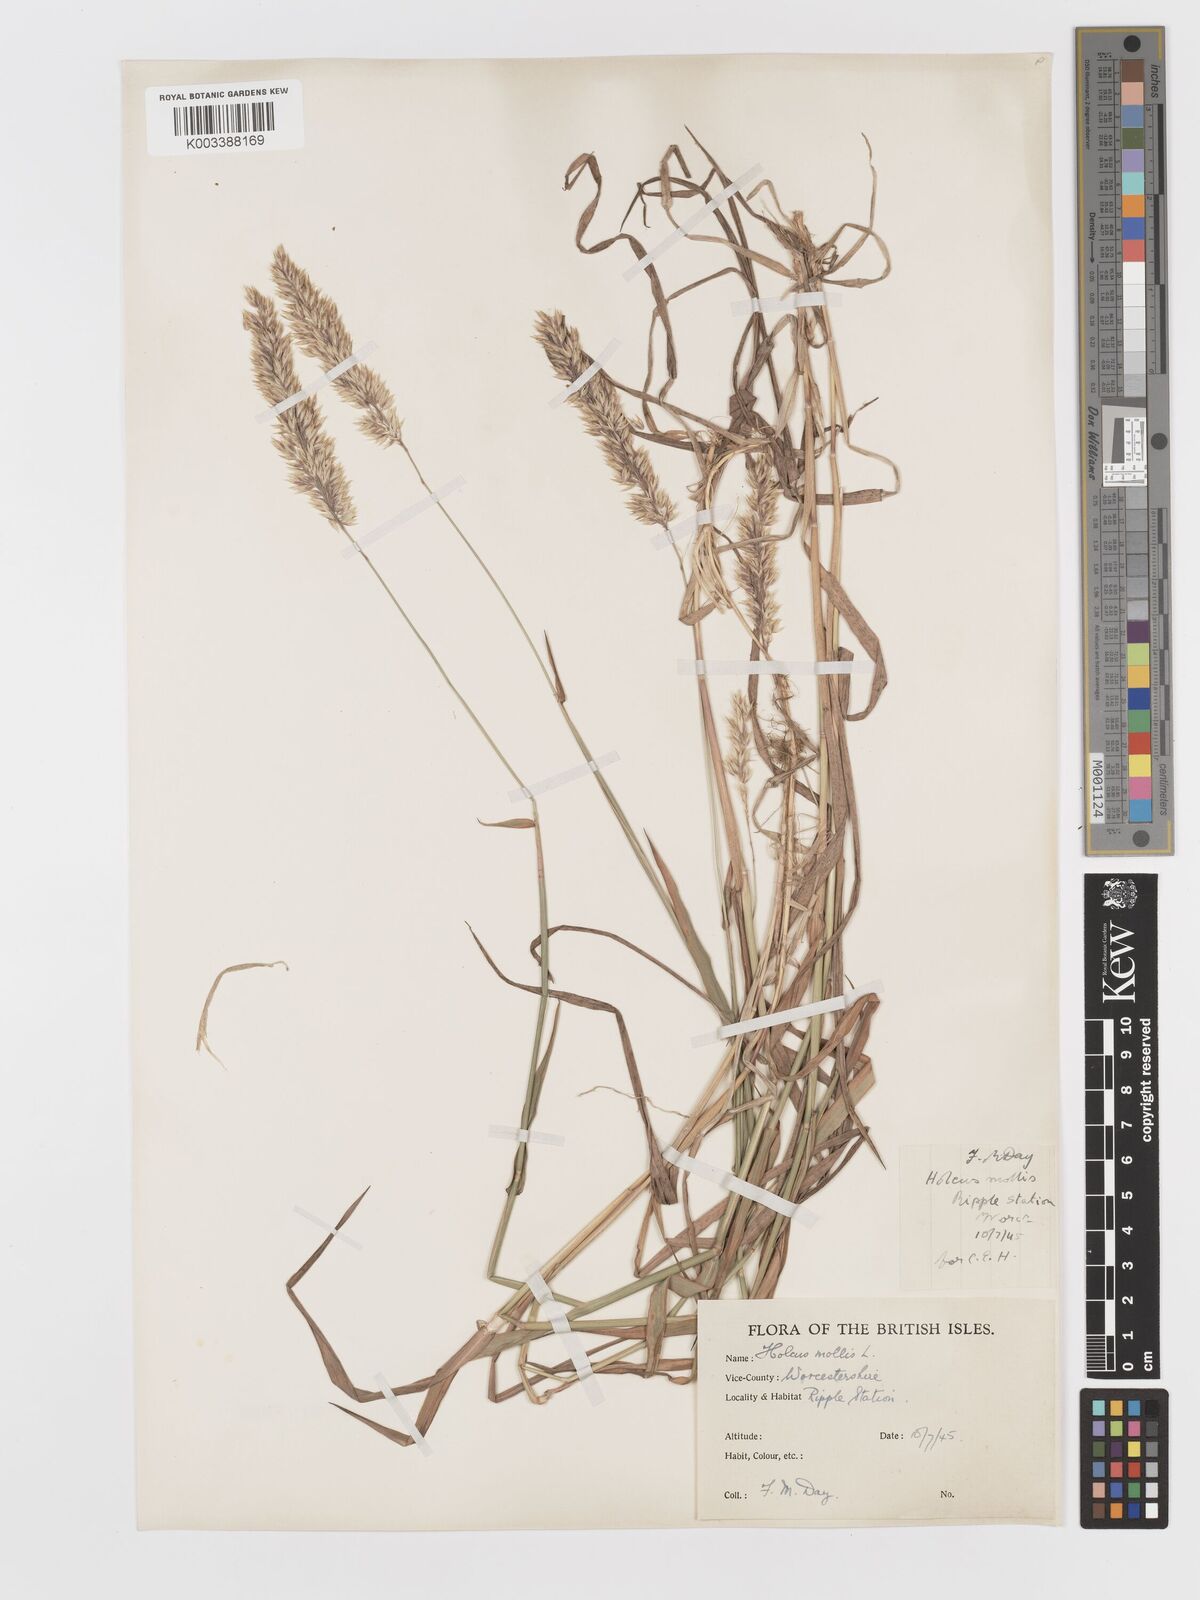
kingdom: Plantae
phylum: Tracheophyta
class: Liliopsida
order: Poales
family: Poaceae
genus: Holcus
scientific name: Holcus mollis
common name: Creeping velvetgrass
